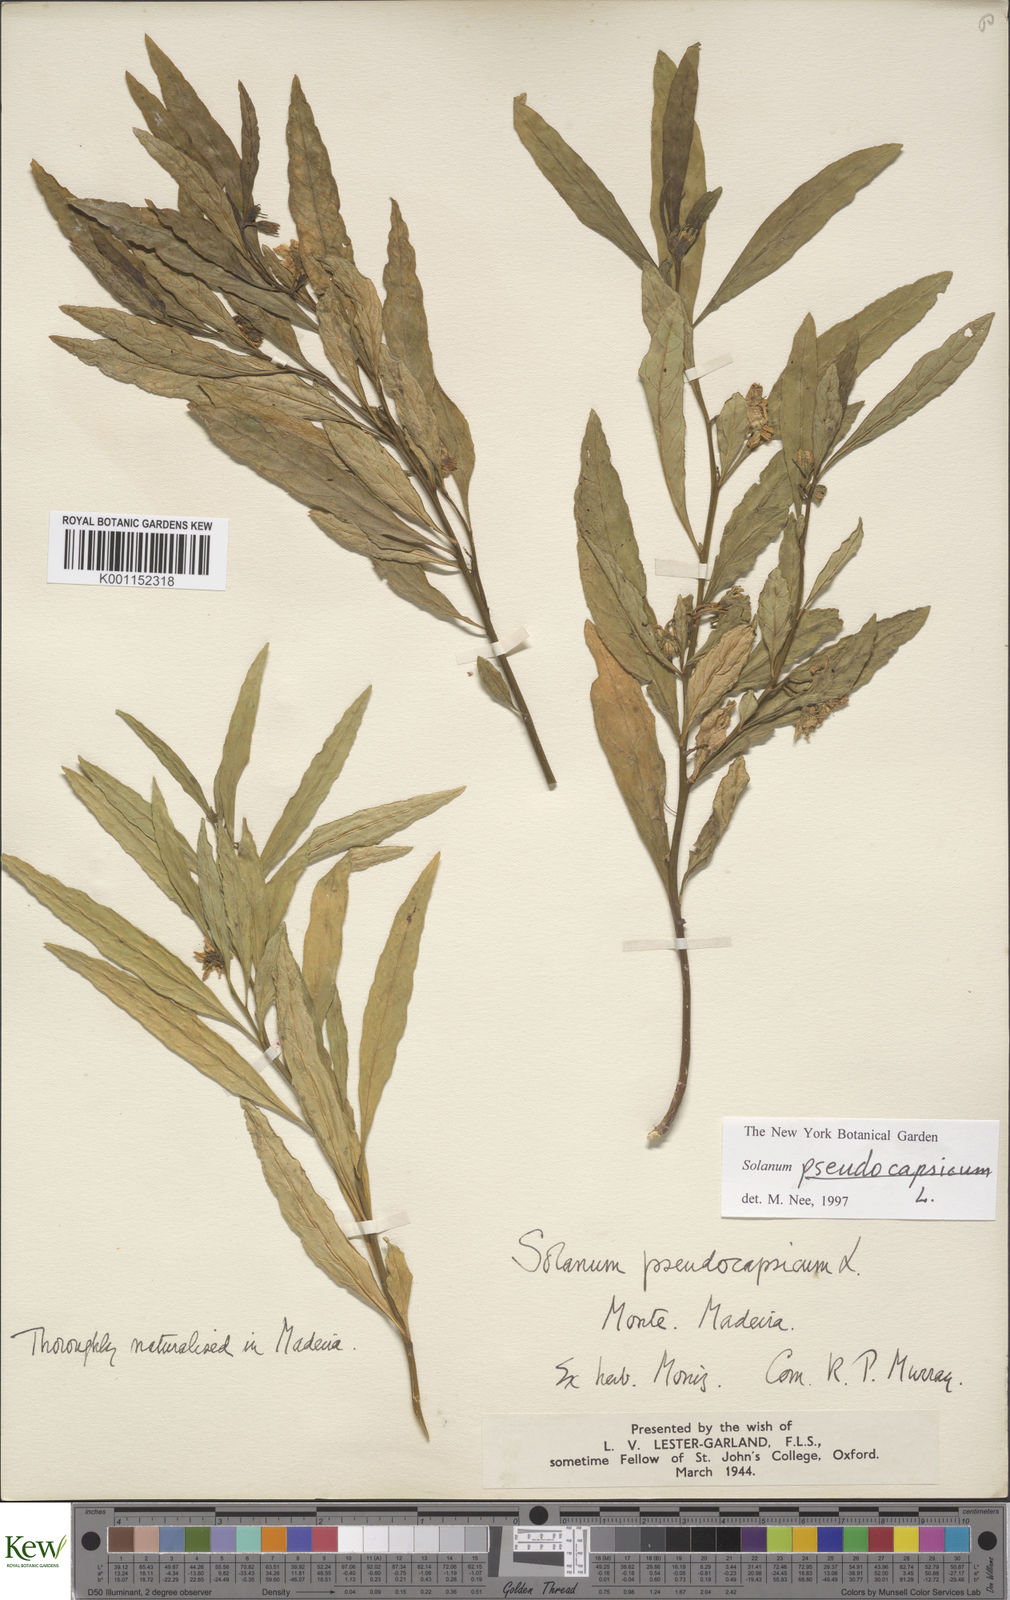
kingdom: Plantae
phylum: Tracheophyta
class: Magnoliopsida
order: Solanales
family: Solanaceae
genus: Solanum
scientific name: Solanum pseudocapsicum
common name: Jerusalem cherry
